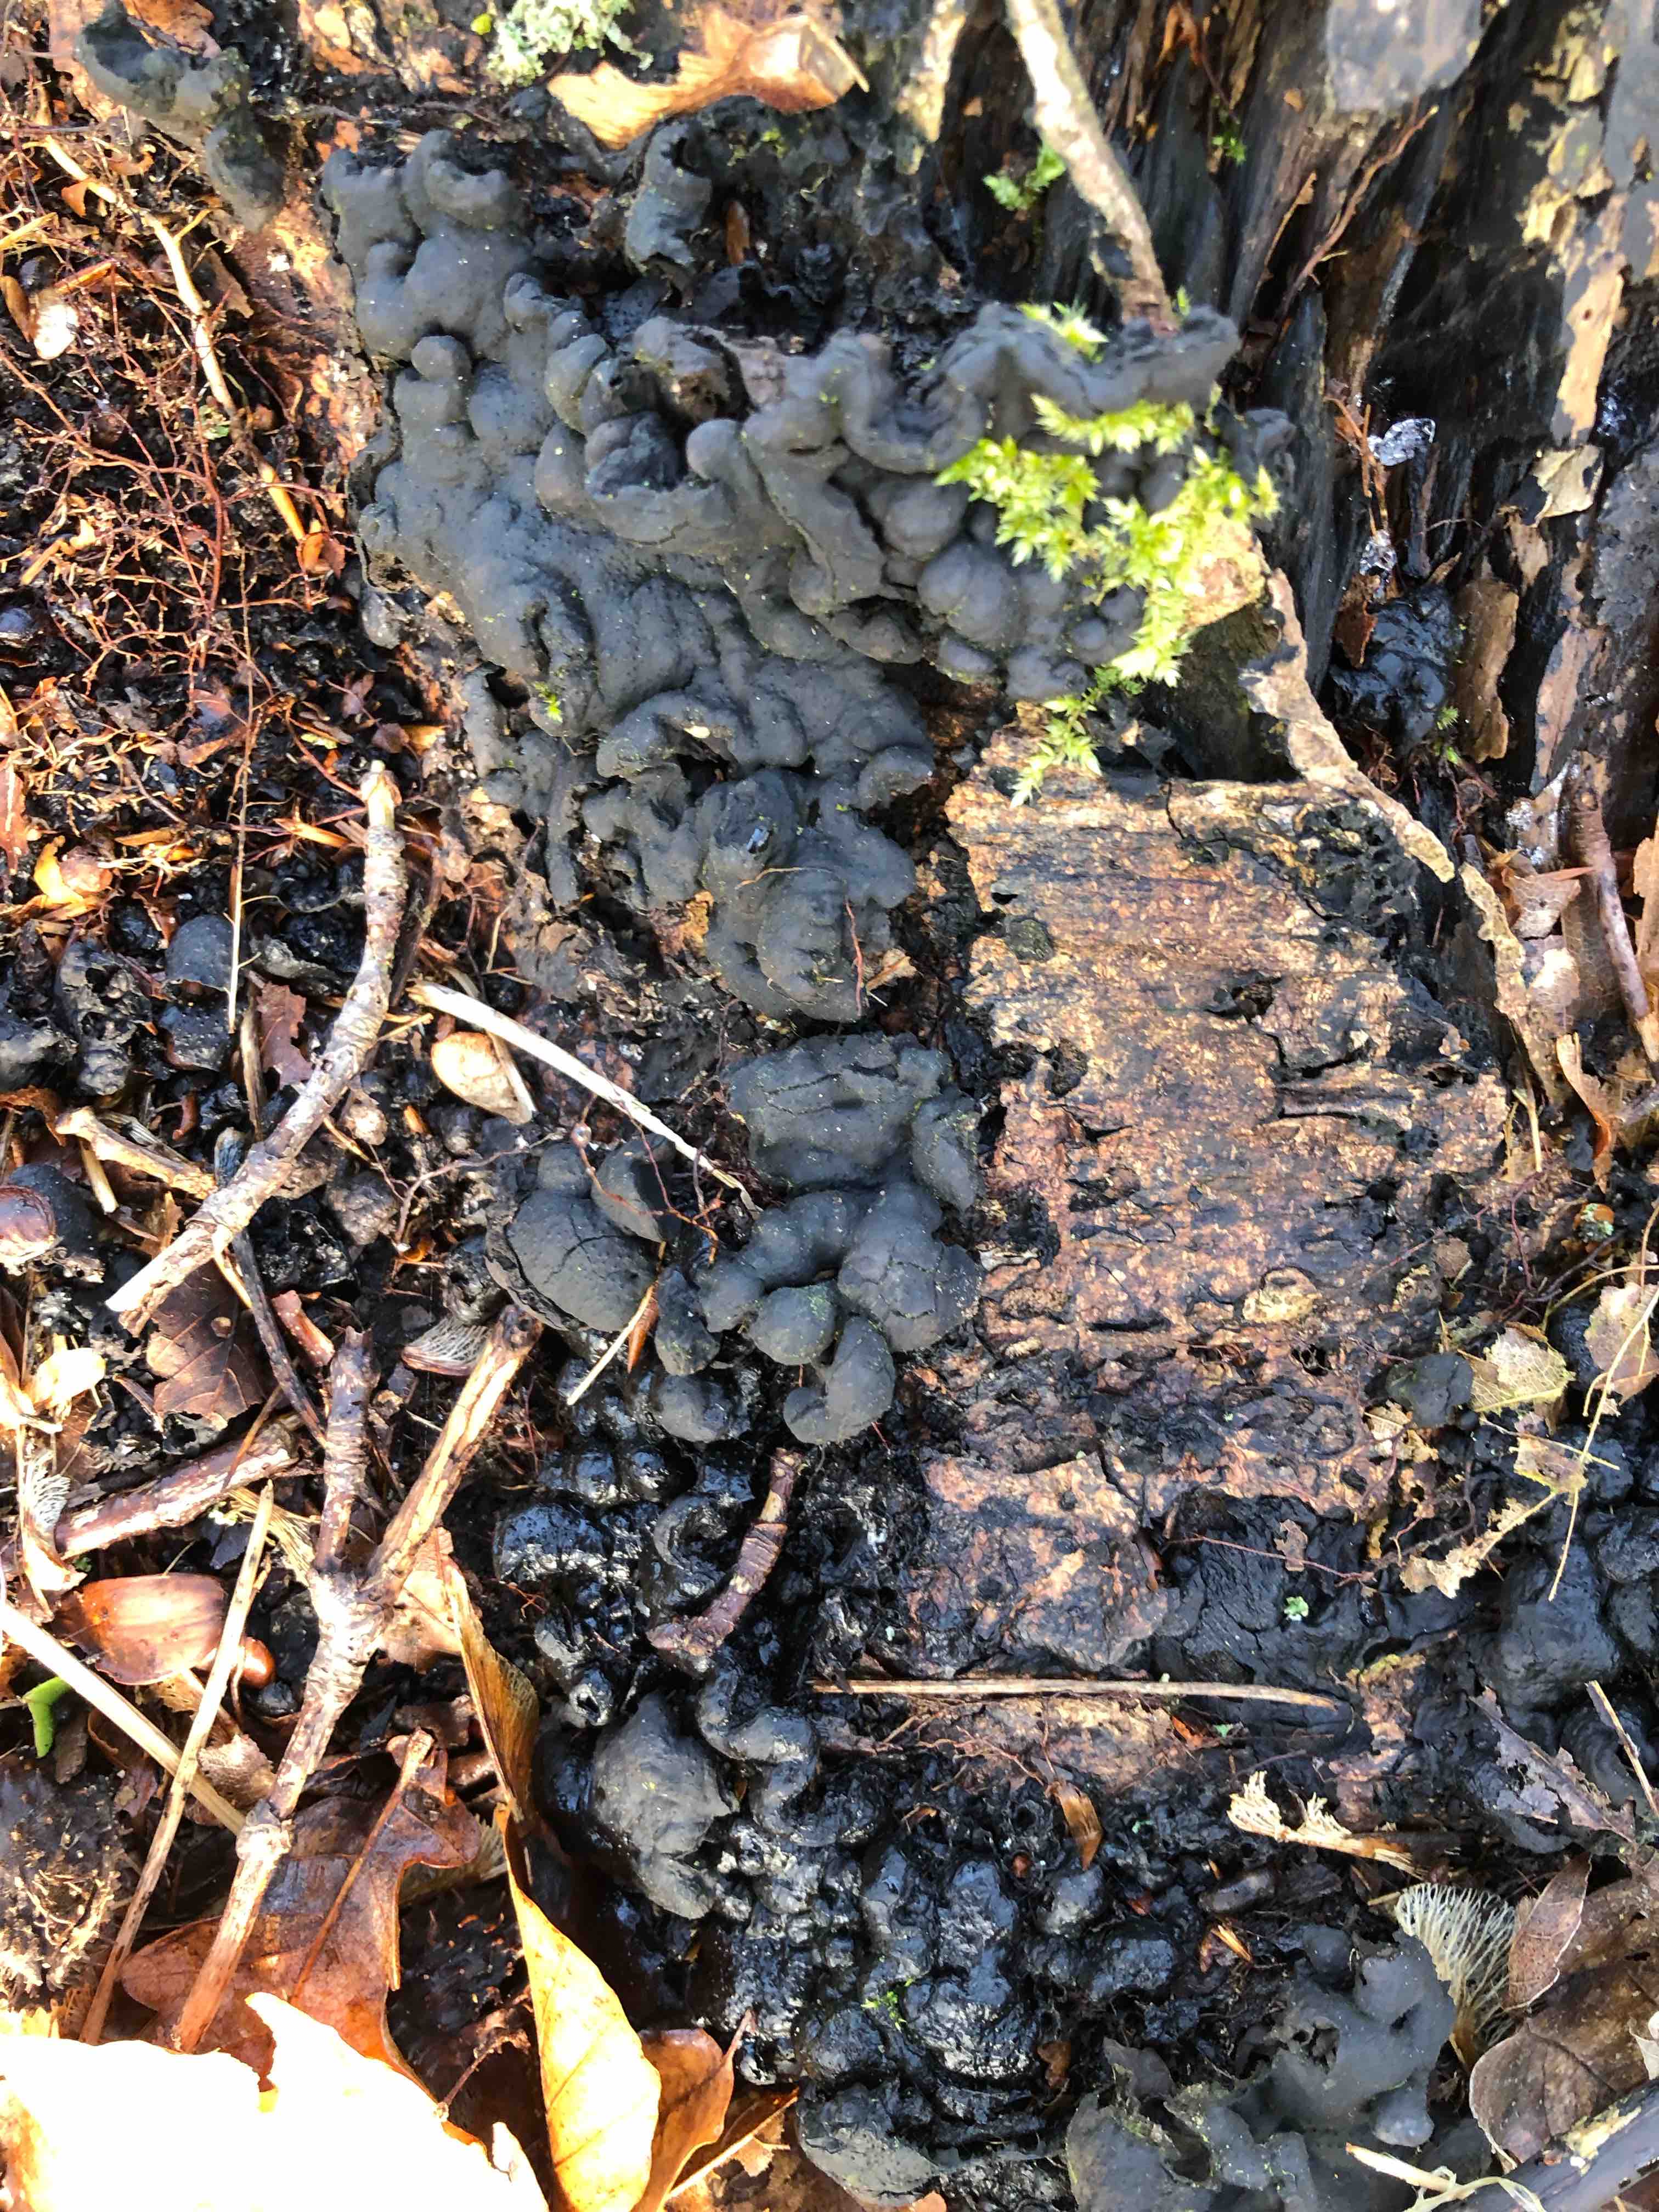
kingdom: Fungi
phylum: Ascomycota
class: Sordariomycetes
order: Xylariales
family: Xylariaceae
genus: Kretzschmaria
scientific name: Kretzschmaria deusta
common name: stor kulsvamp
